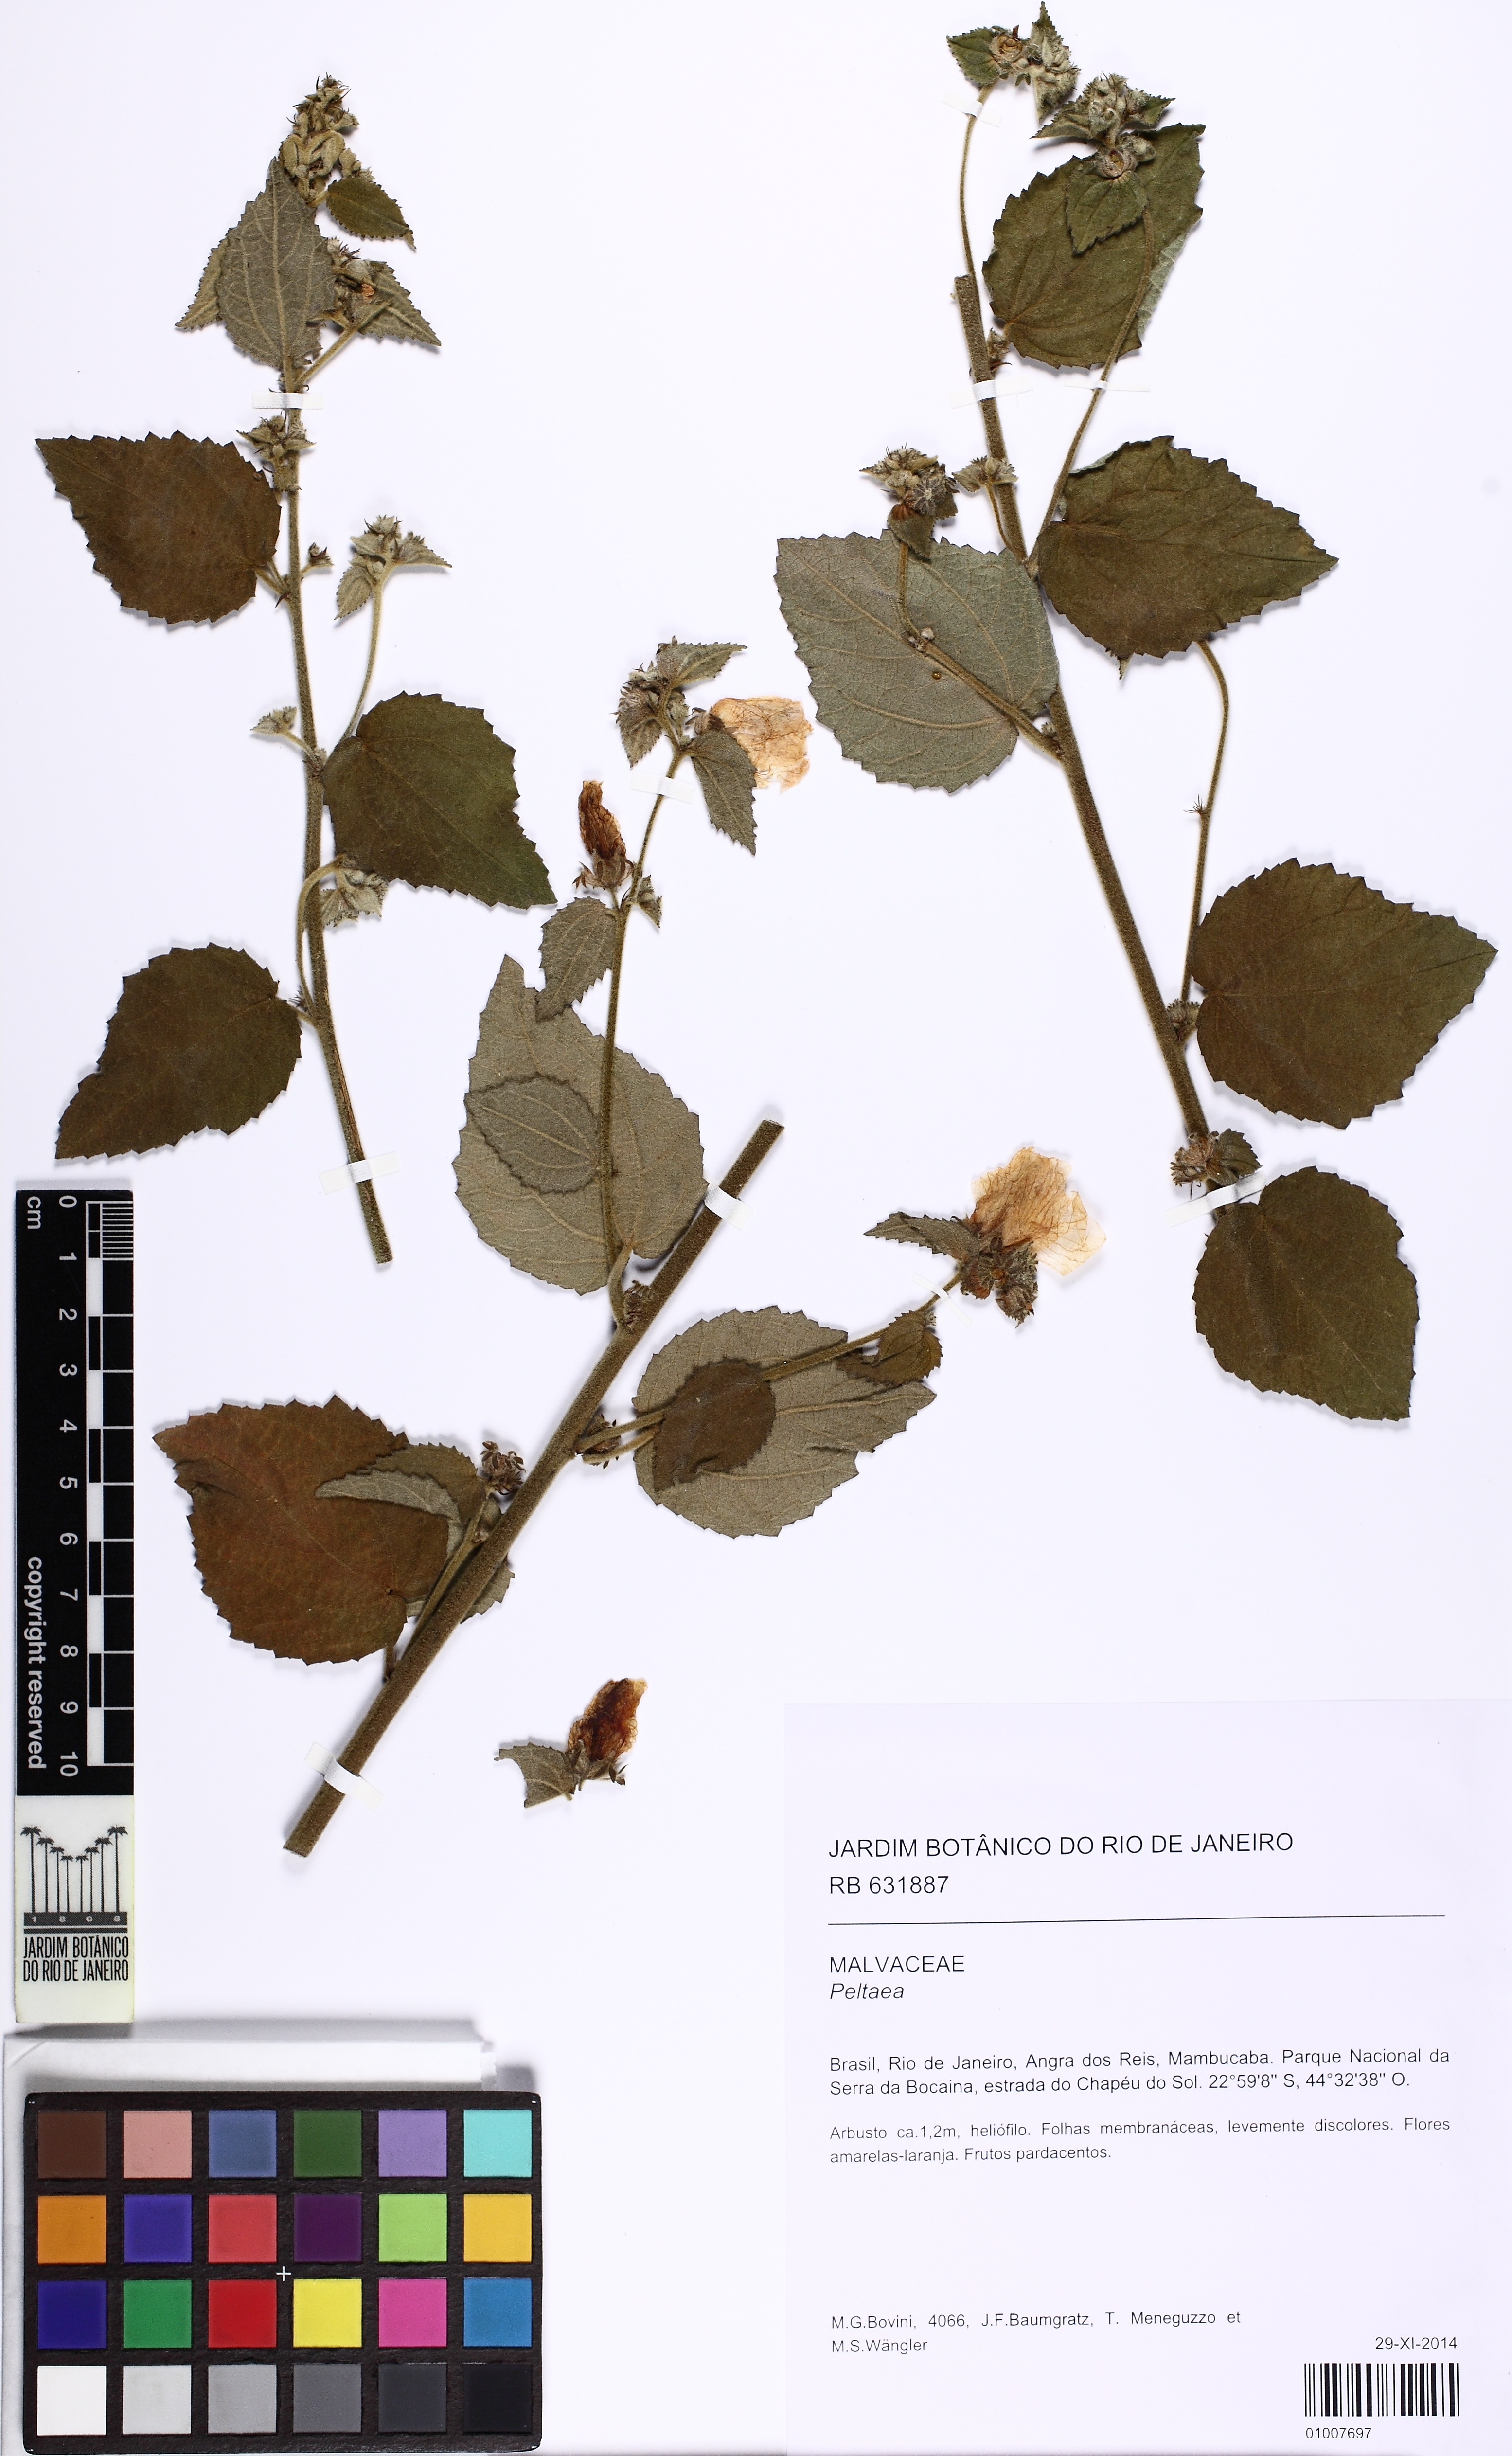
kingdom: Plantae
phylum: Tracheophyta
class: Magnoliopsida
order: Malvales
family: Malvaceae
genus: Peltaea
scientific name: Peltaea
